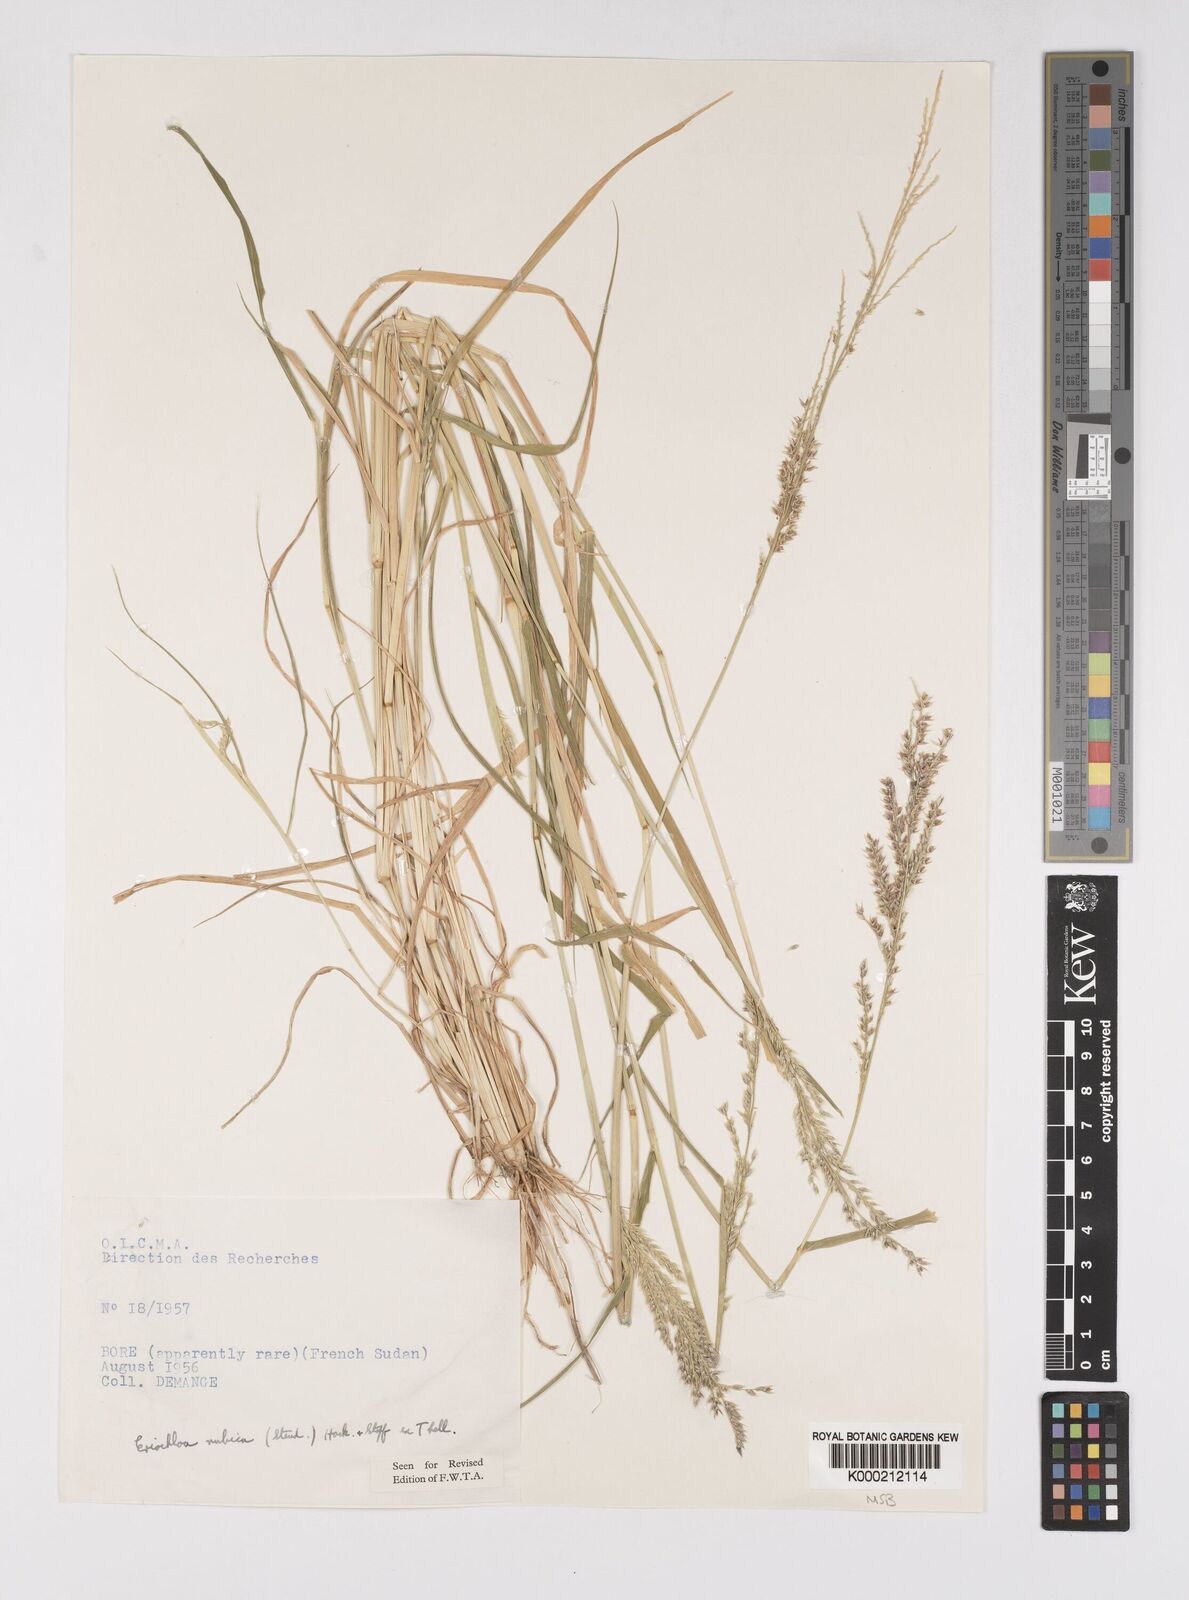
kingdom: Plantae
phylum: Tracheophyta
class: Liliopsida
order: Poales
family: Poaceae
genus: Eriochloa
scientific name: Eriochloa barbatus
